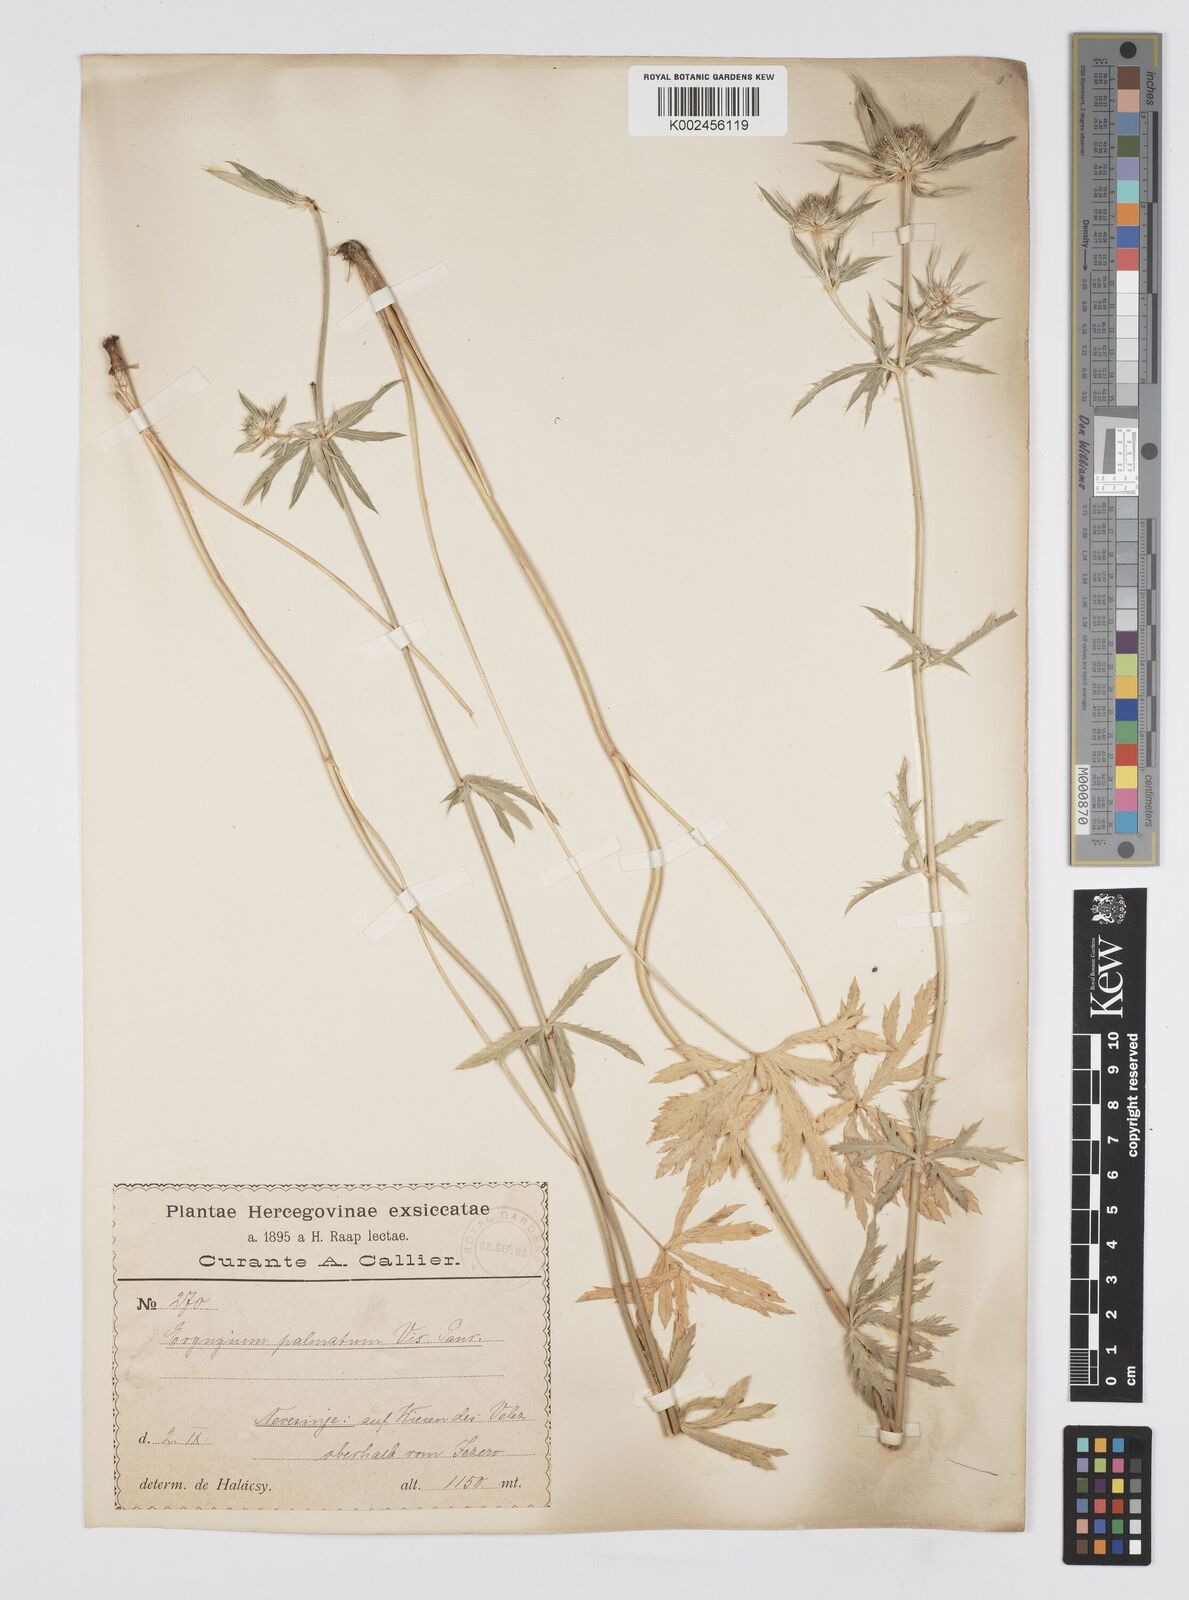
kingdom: Plantae
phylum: Tracheophyta
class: Magnoliopsida
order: Apiales
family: Apiaceae
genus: Eryngium
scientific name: Eryngium palmatum
